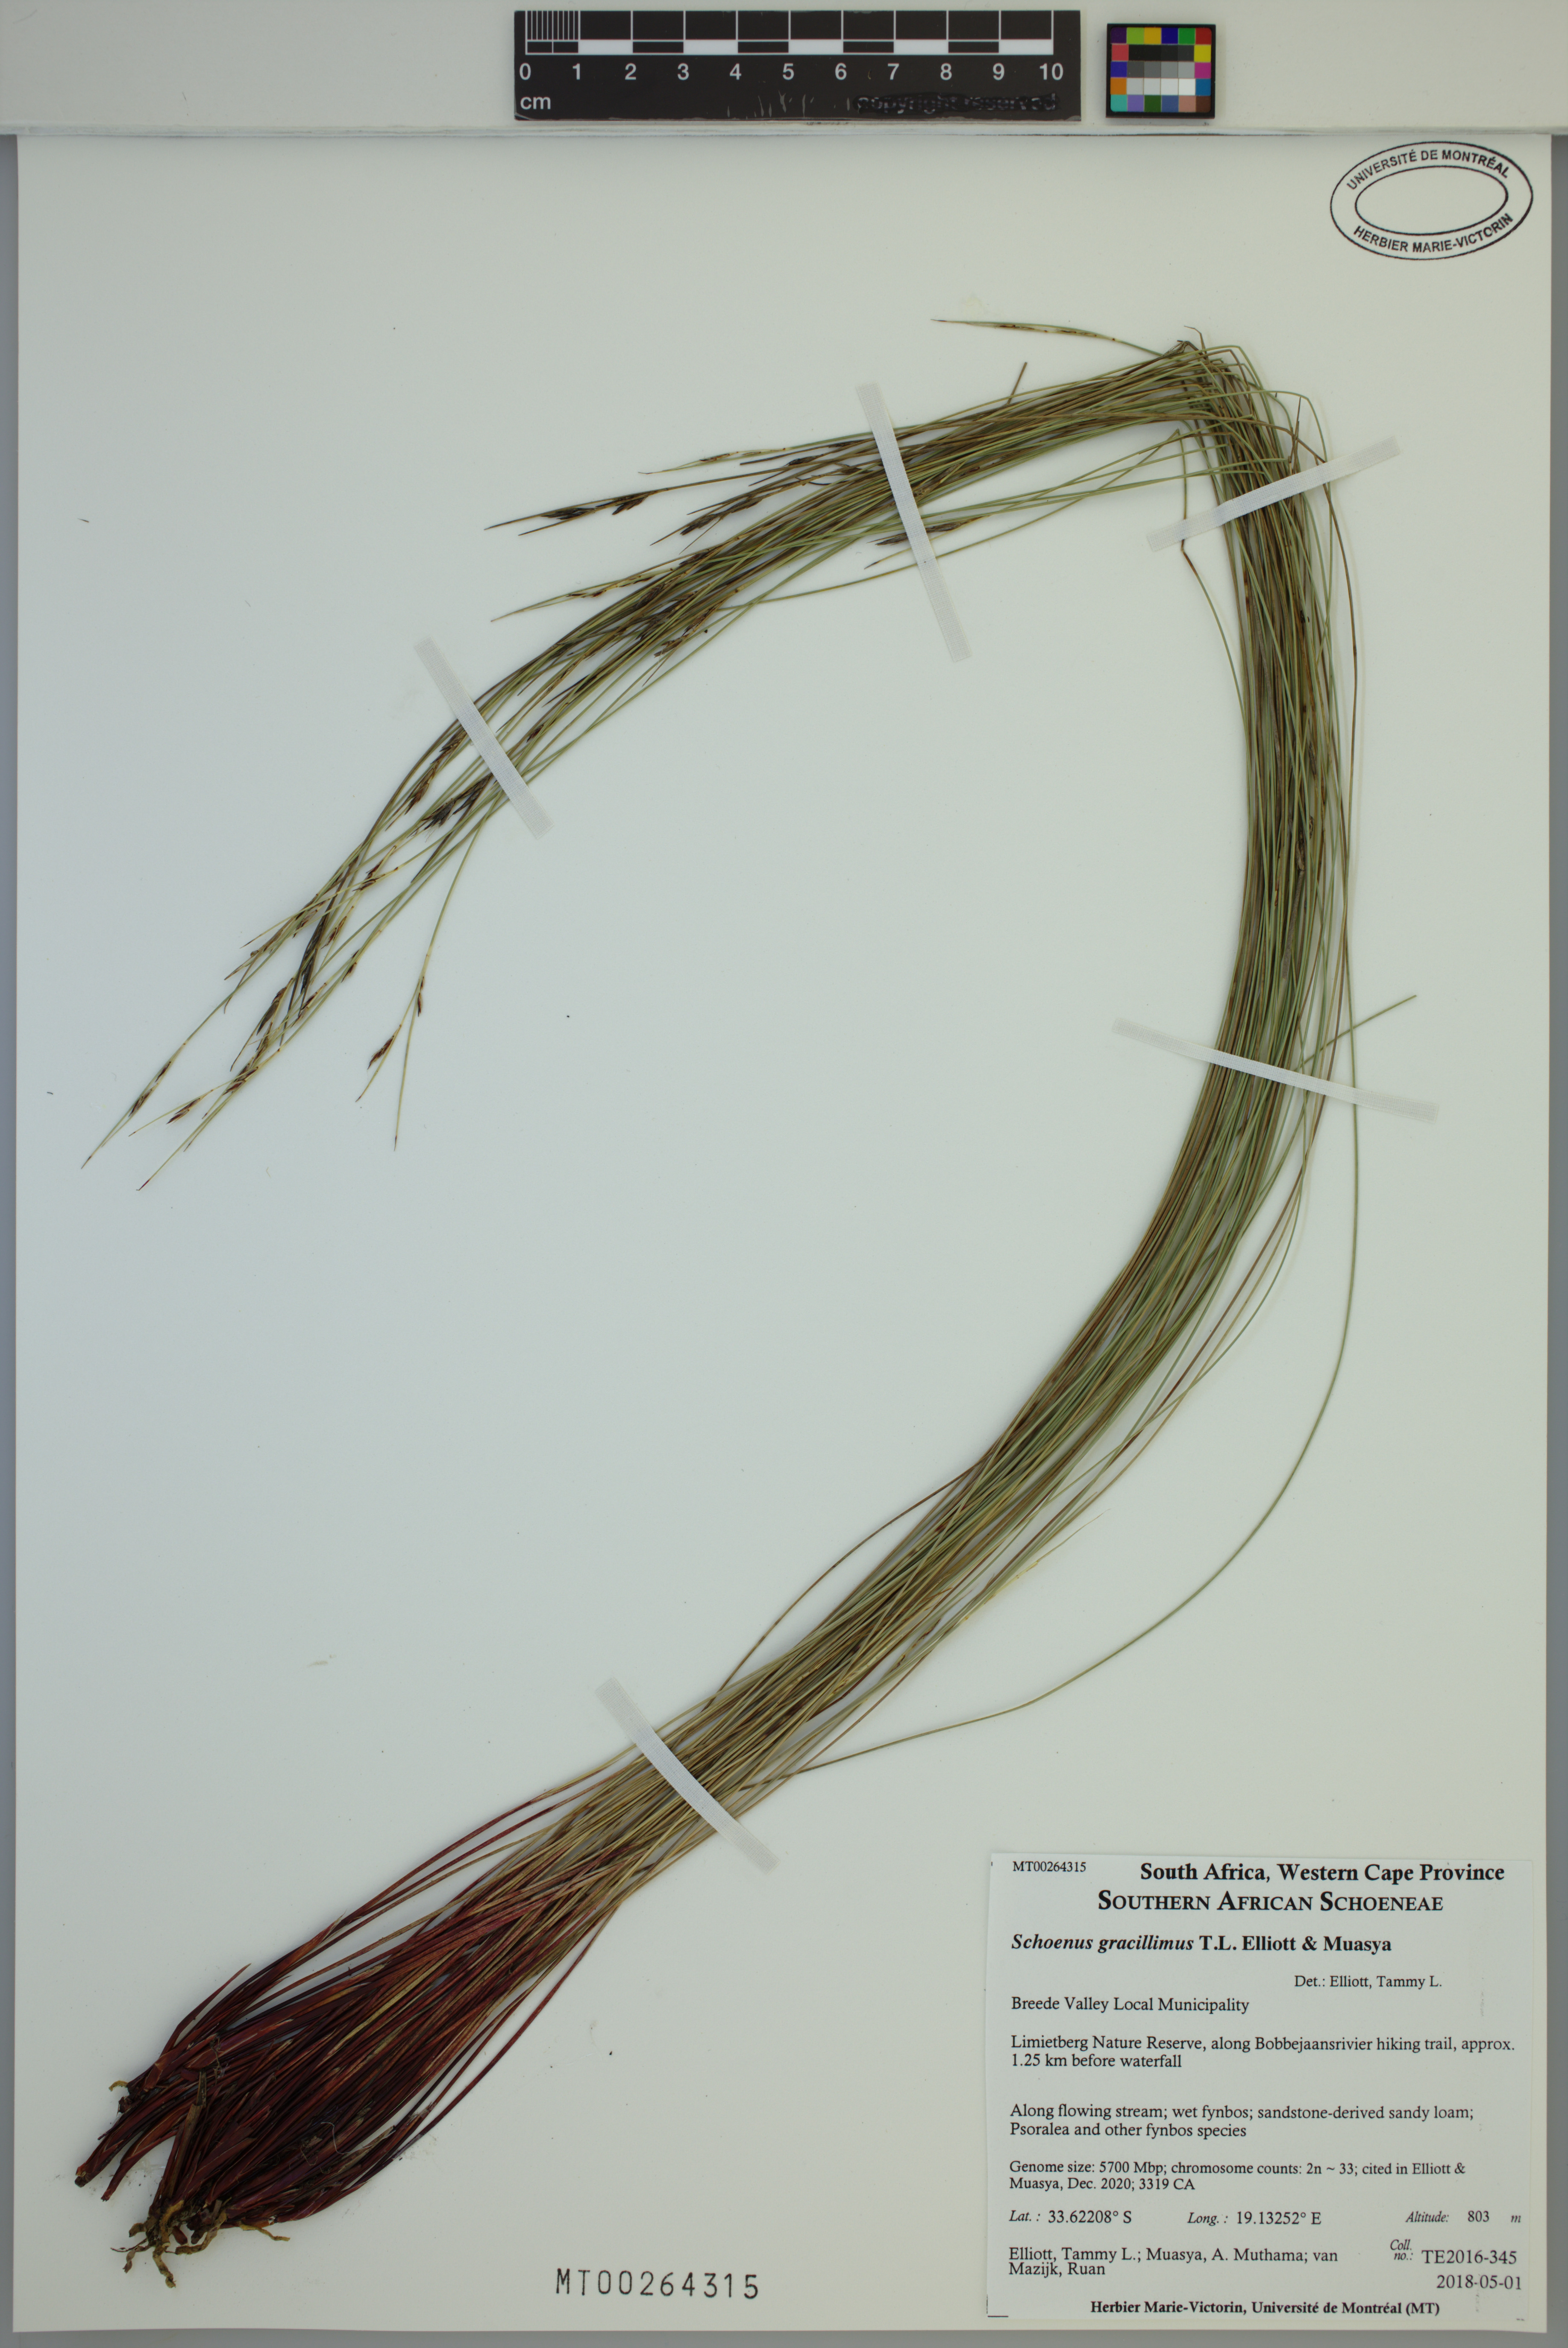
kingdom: Plantae
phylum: Tracheophyta
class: Liliopsida
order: Poales
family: Cyperaceae
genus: Schoenus
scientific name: Schoenus gracillimus
